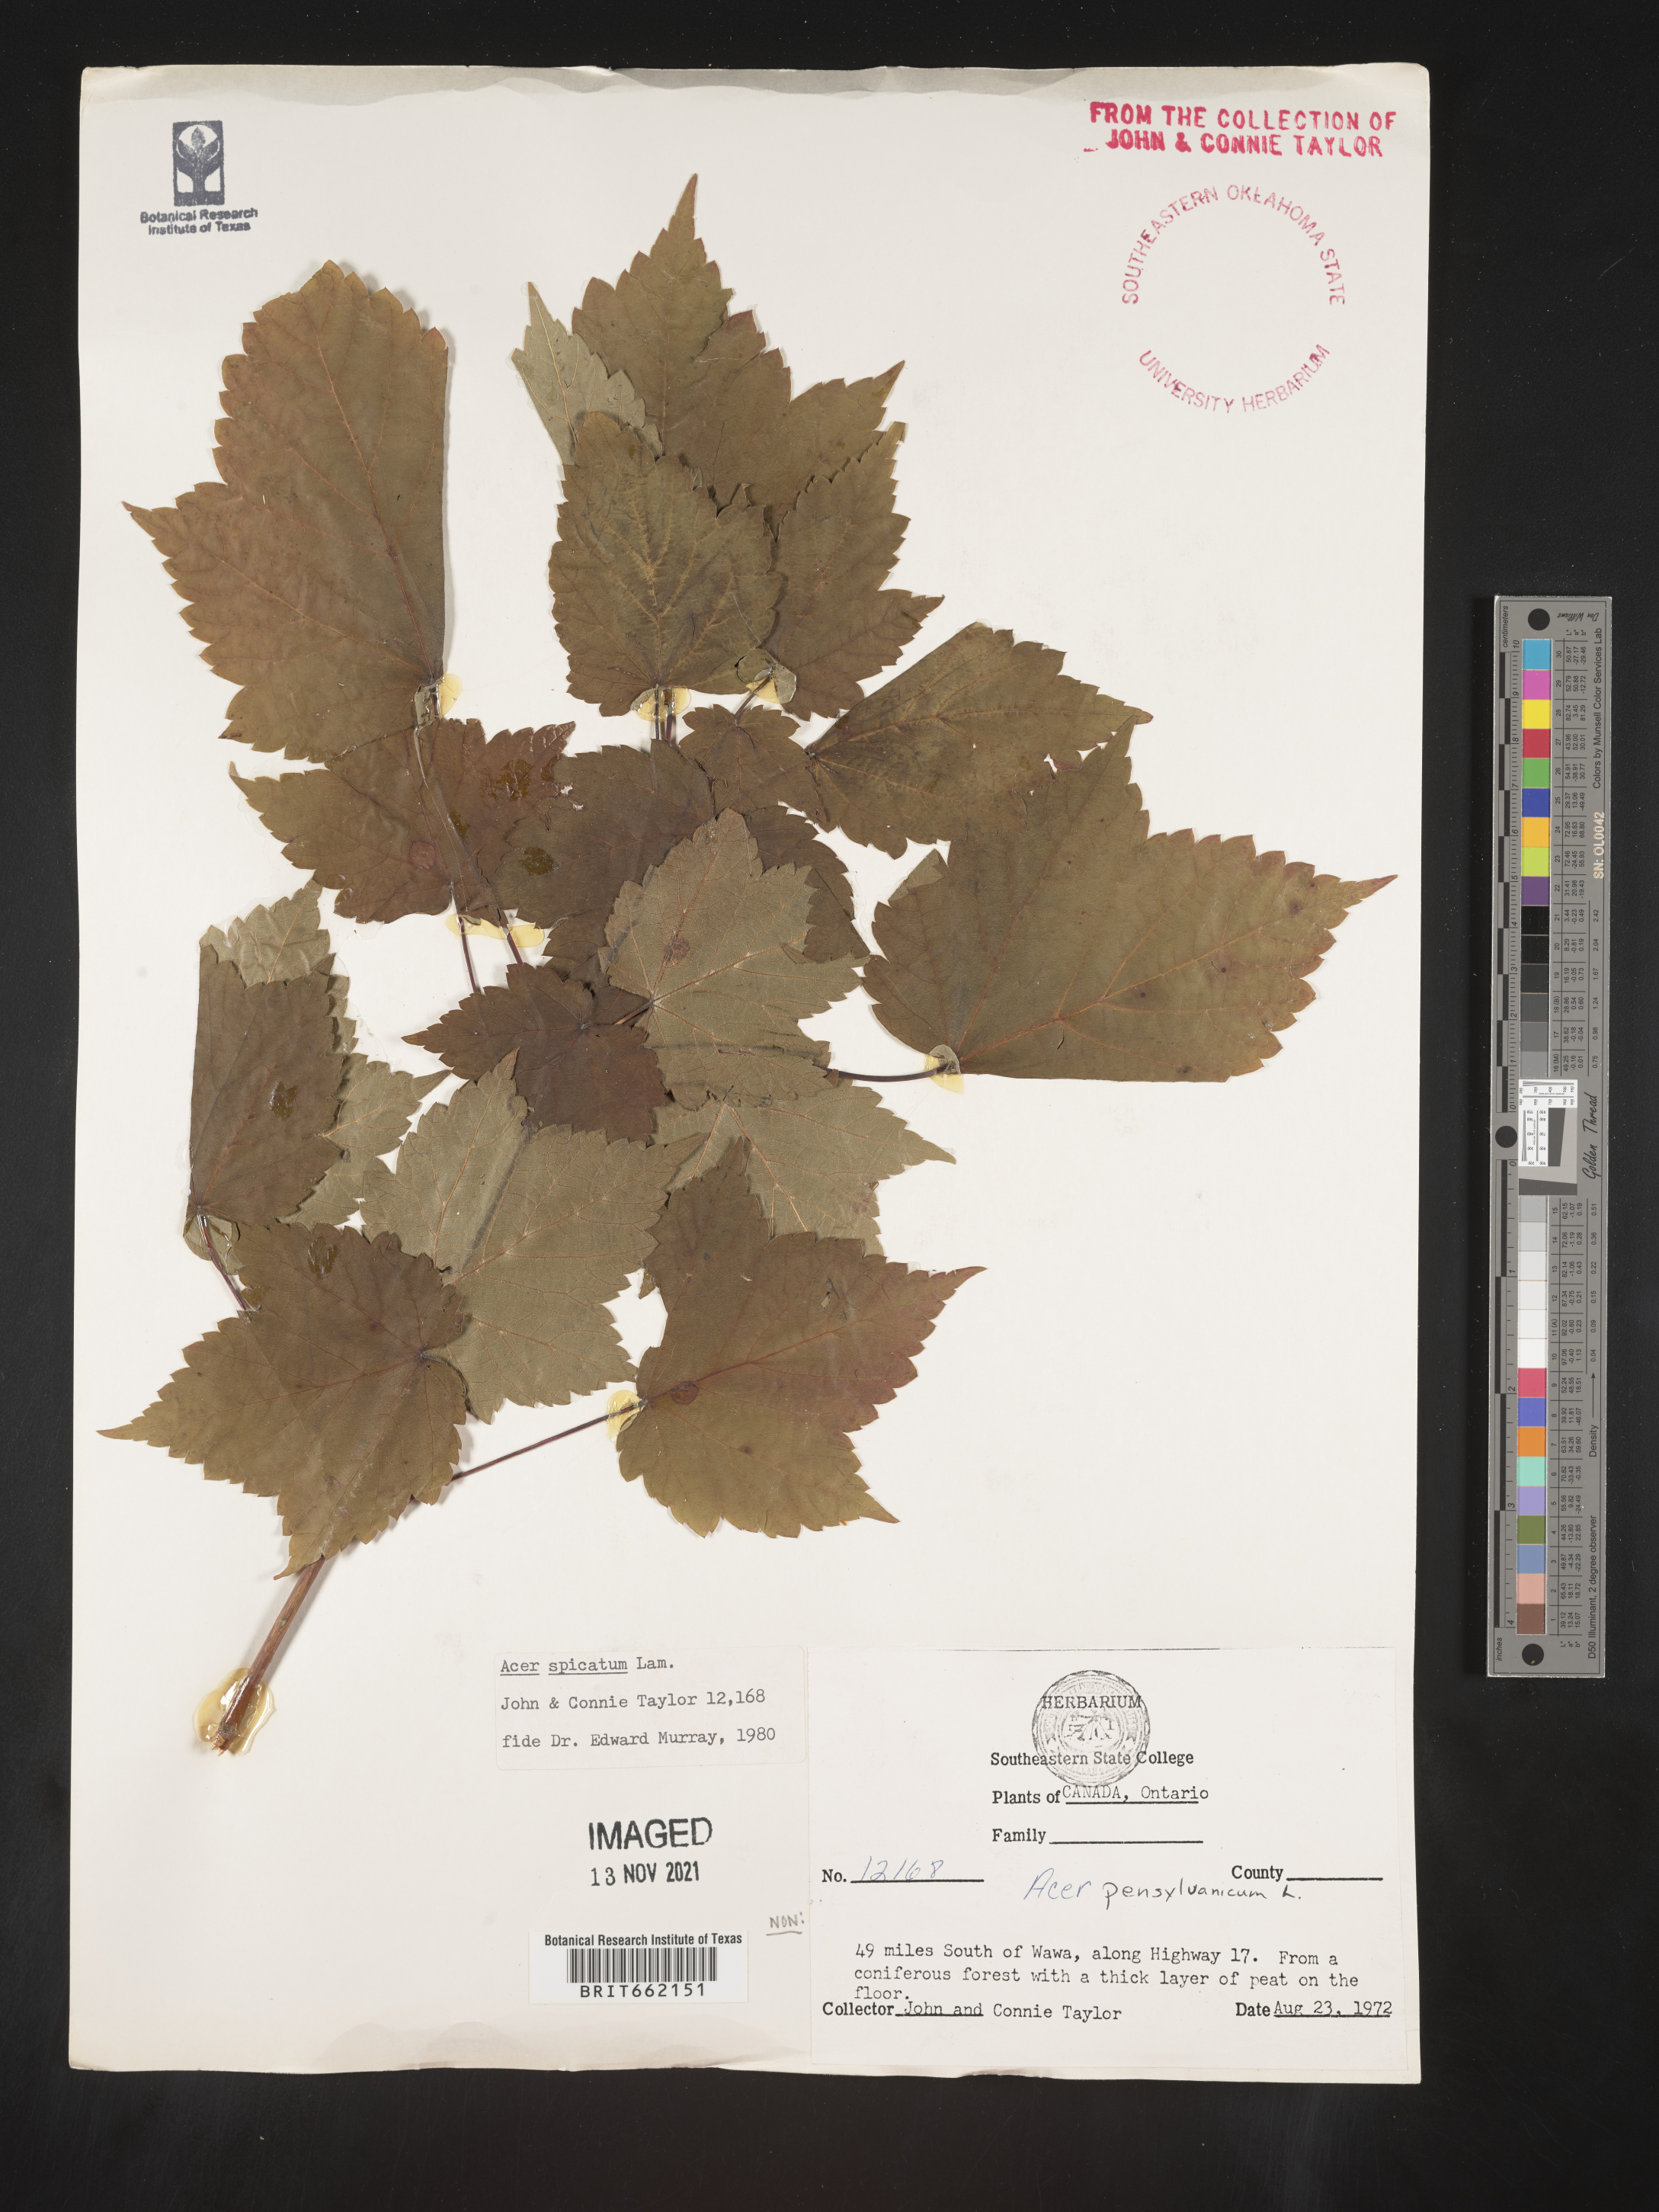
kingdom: Plantae
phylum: Tracheophyta
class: Magnoliopsida
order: Sapindales
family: Sapindaceae
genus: Acer
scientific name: Acer spicatum
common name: Mountain maple
